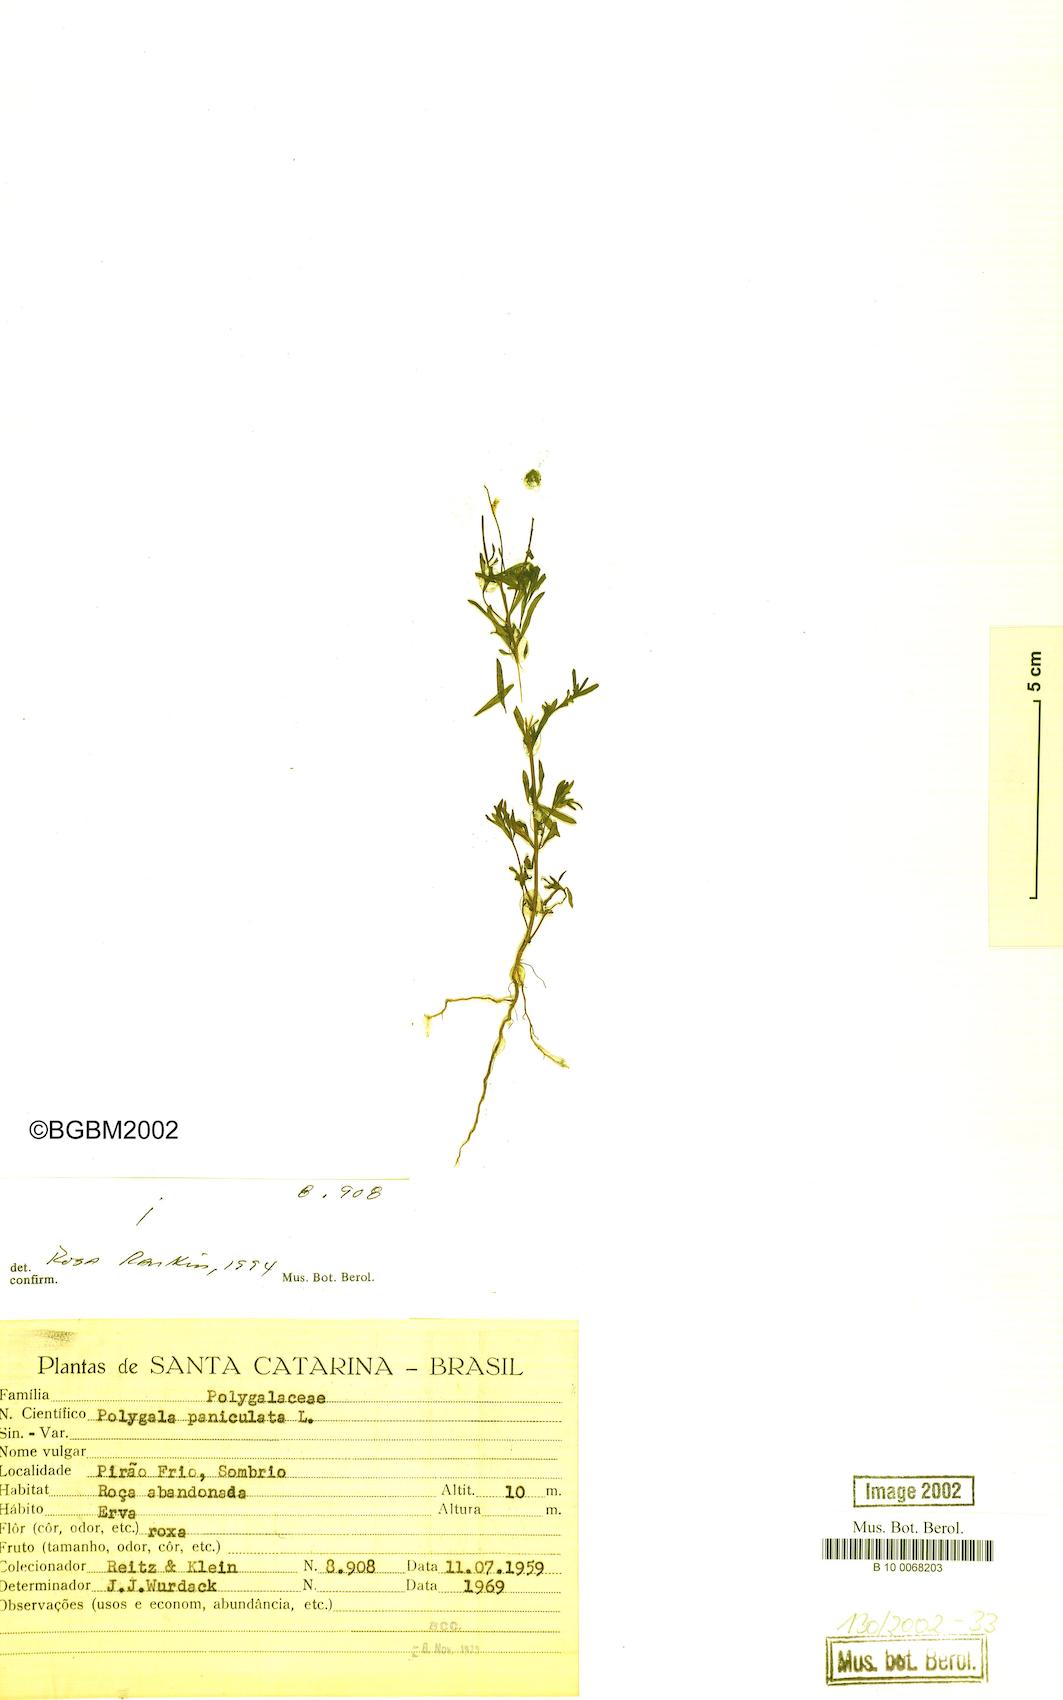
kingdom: Plantae
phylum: Tracheophyta
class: Magnoliopsida
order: Fabales
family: Polygalaceae
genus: Polygala
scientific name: Polygala paniculata
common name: Orosne
